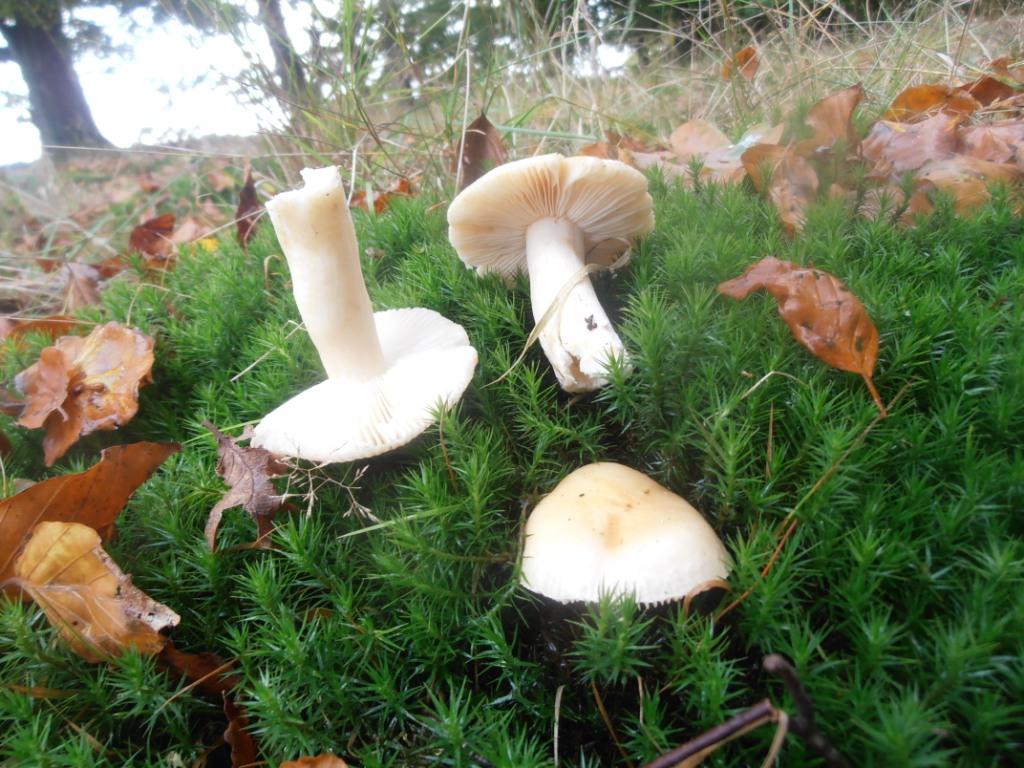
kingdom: Fungi
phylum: Basidiomycota
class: Agaricomycetes
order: Russulales
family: Russulaceae
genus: Russula
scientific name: Russula fellea
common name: galde-skørhat
